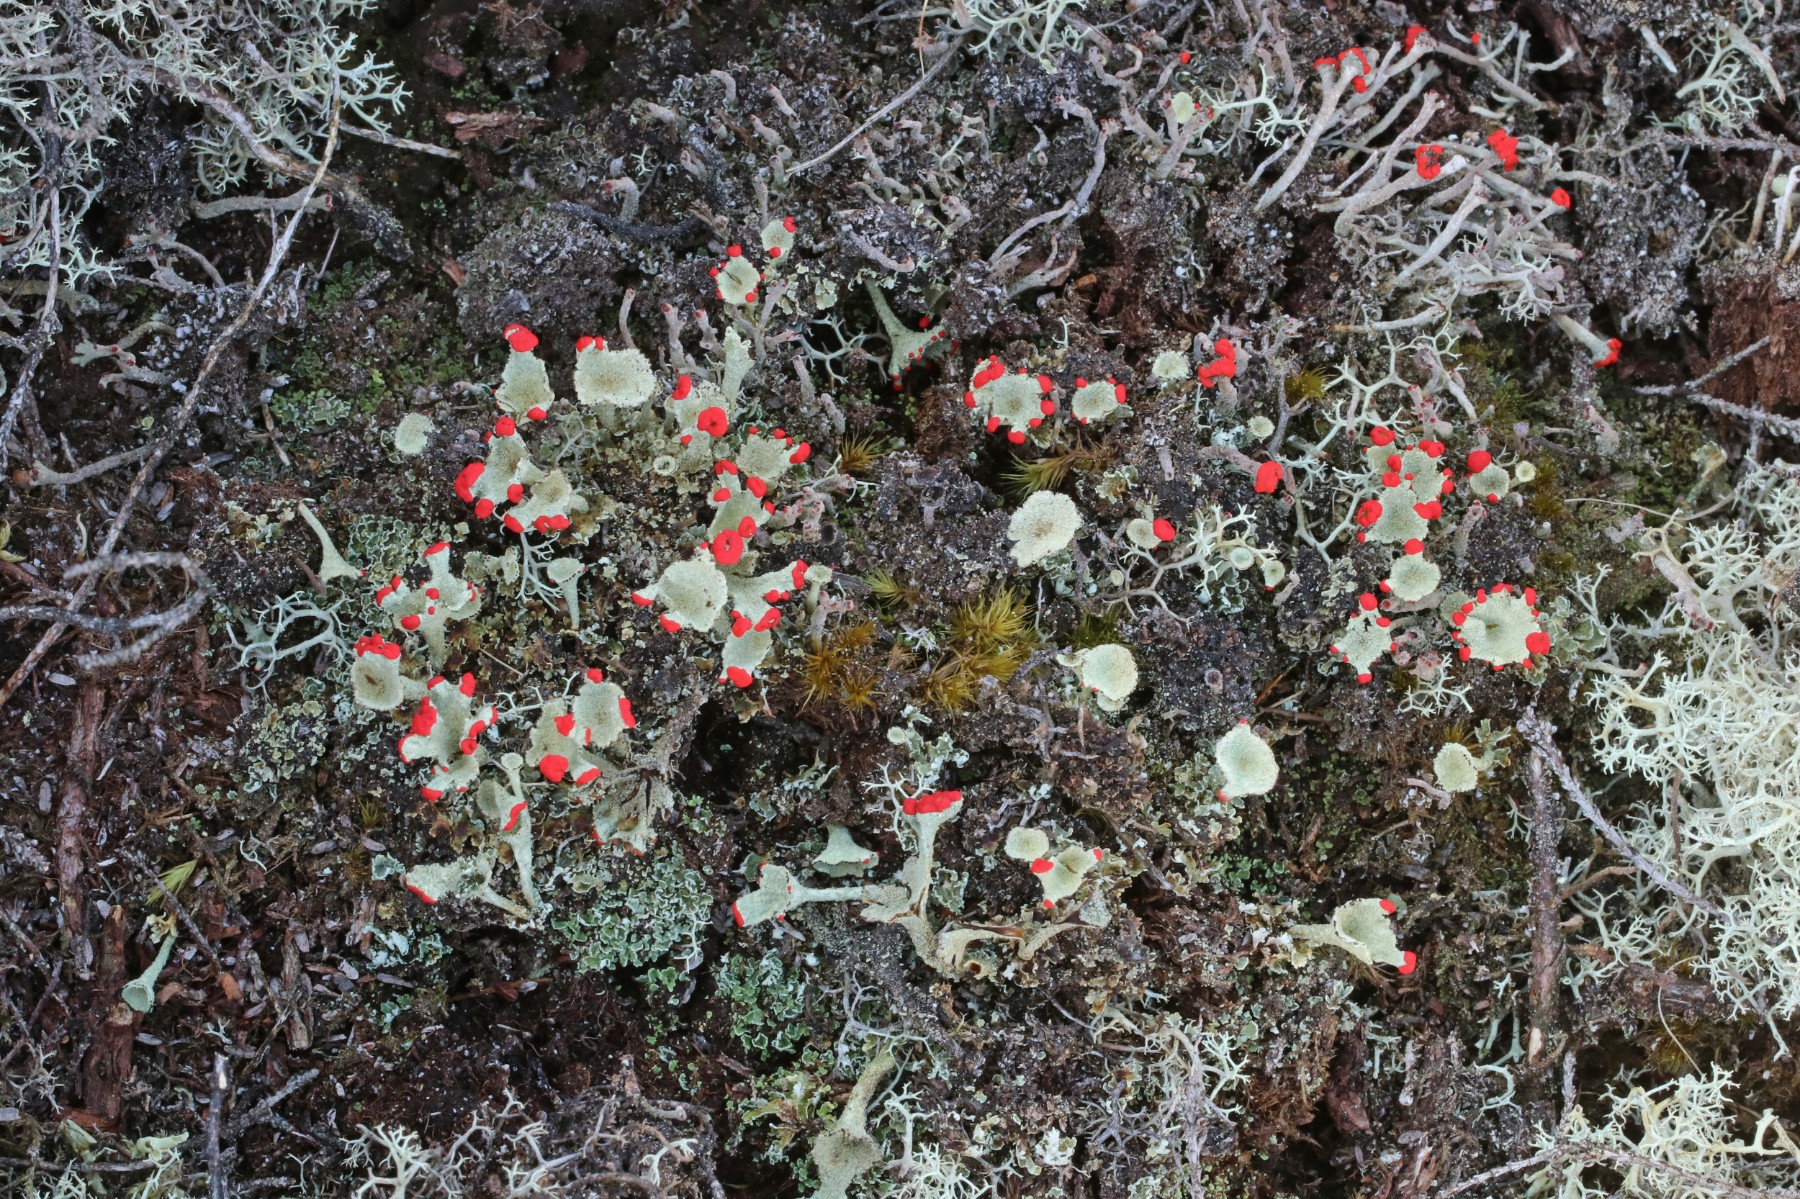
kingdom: Fungi
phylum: Ascomycota
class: Lecanoromycetes
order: Lecanorales
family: Cladoniaceae
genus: Cladonia
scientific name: Cladonia diversa
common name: rød bægerlav
